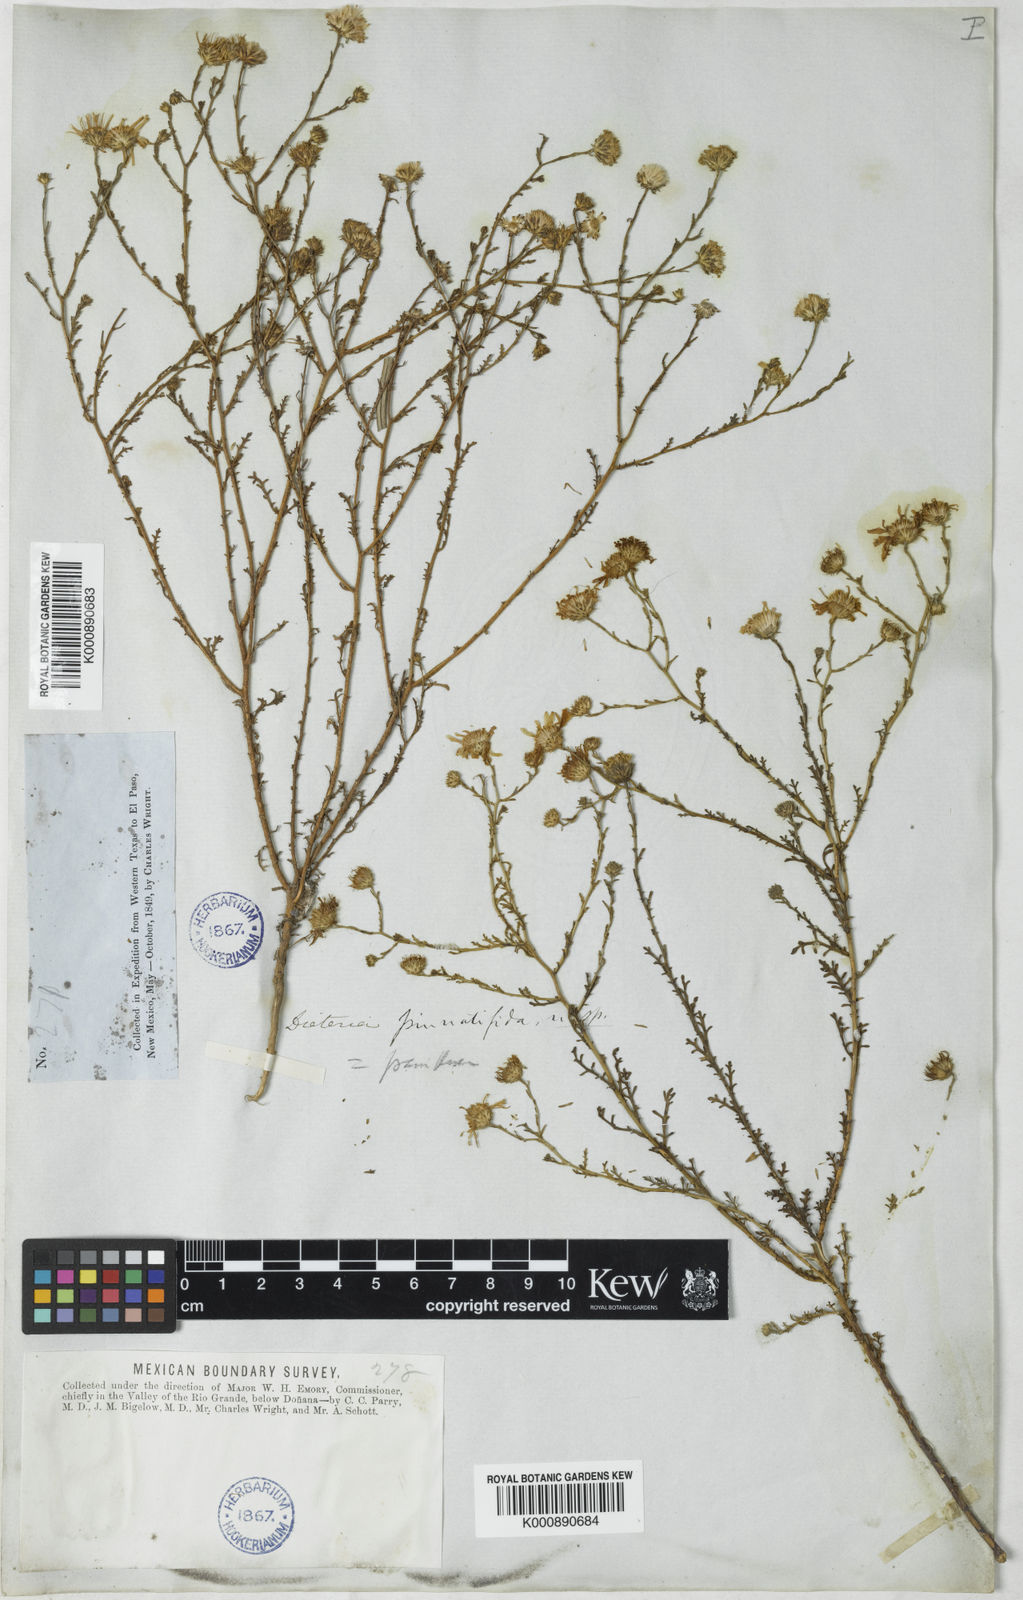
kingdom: Plantae
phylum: Tracheophyta
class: Magnoliopsida
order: Asterales
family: Asteraceae
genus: Symphyotrichum
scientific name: Symphyotrichum expansum
